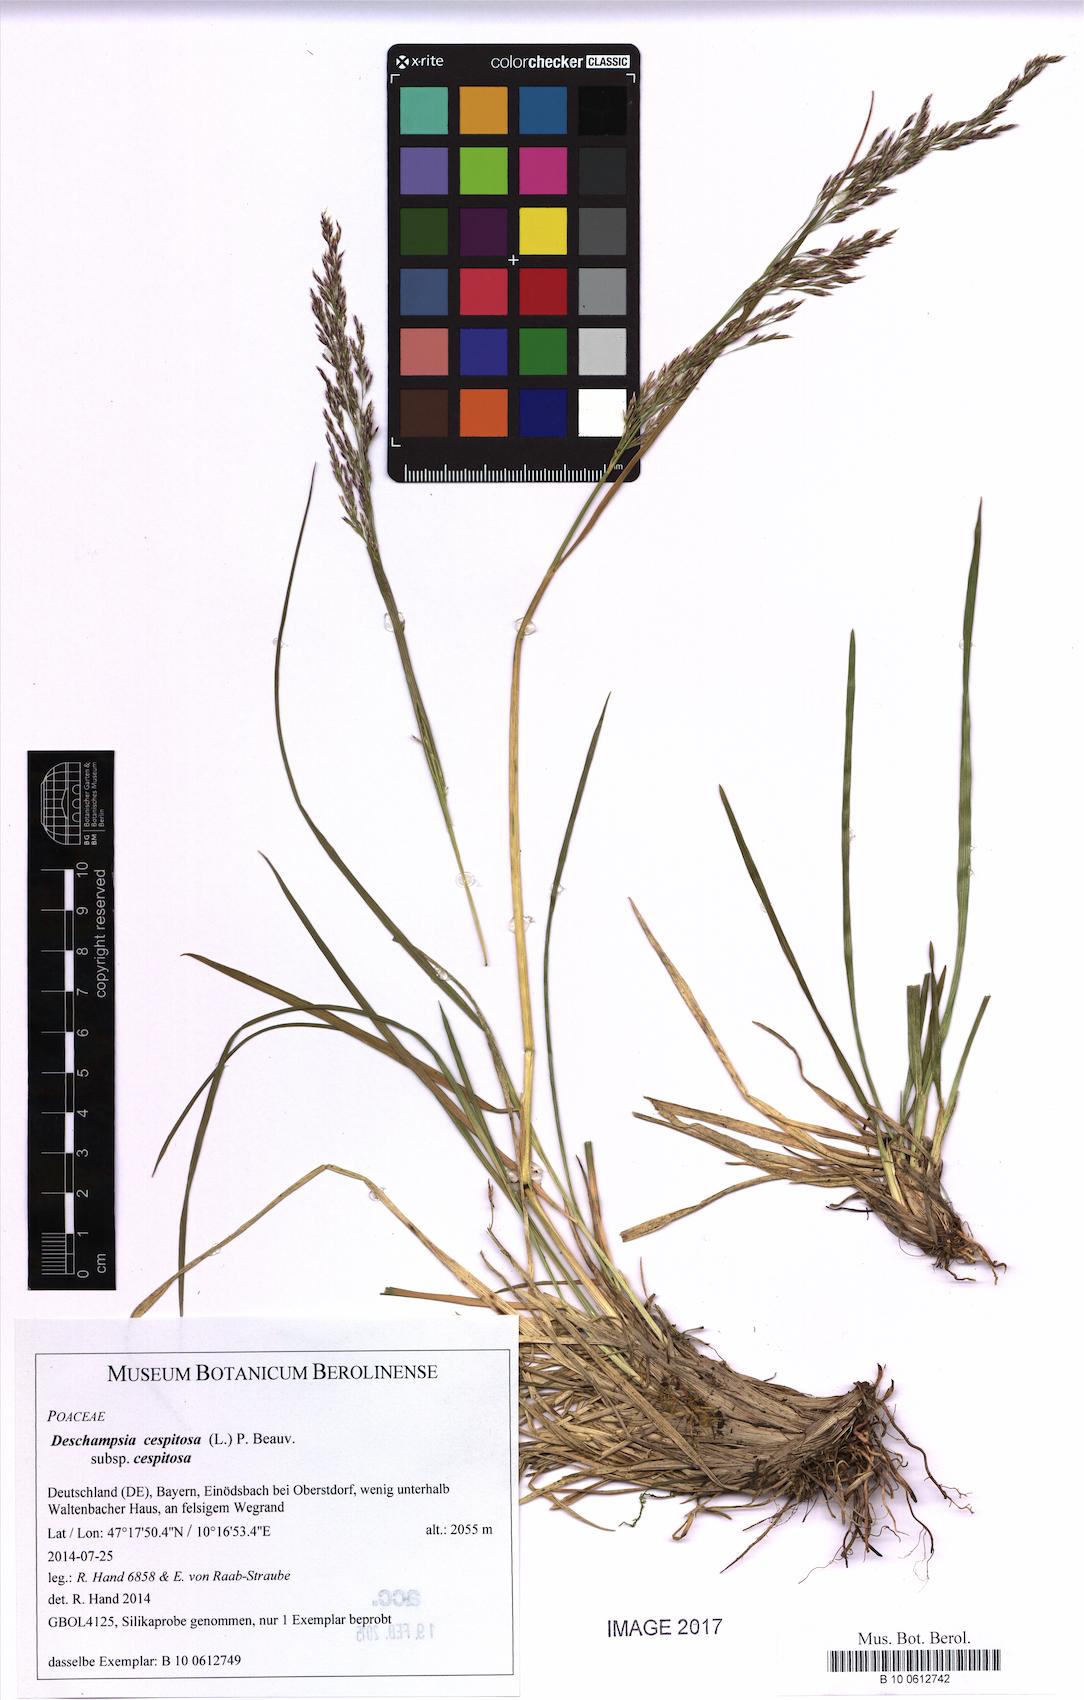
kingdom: Plantae
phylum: Tracheophyta
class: Liliopsida
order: Poales
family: Poaceae
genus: Deschampsia
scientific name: Deschampsia cespitosa
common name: Tufted hair-grass
